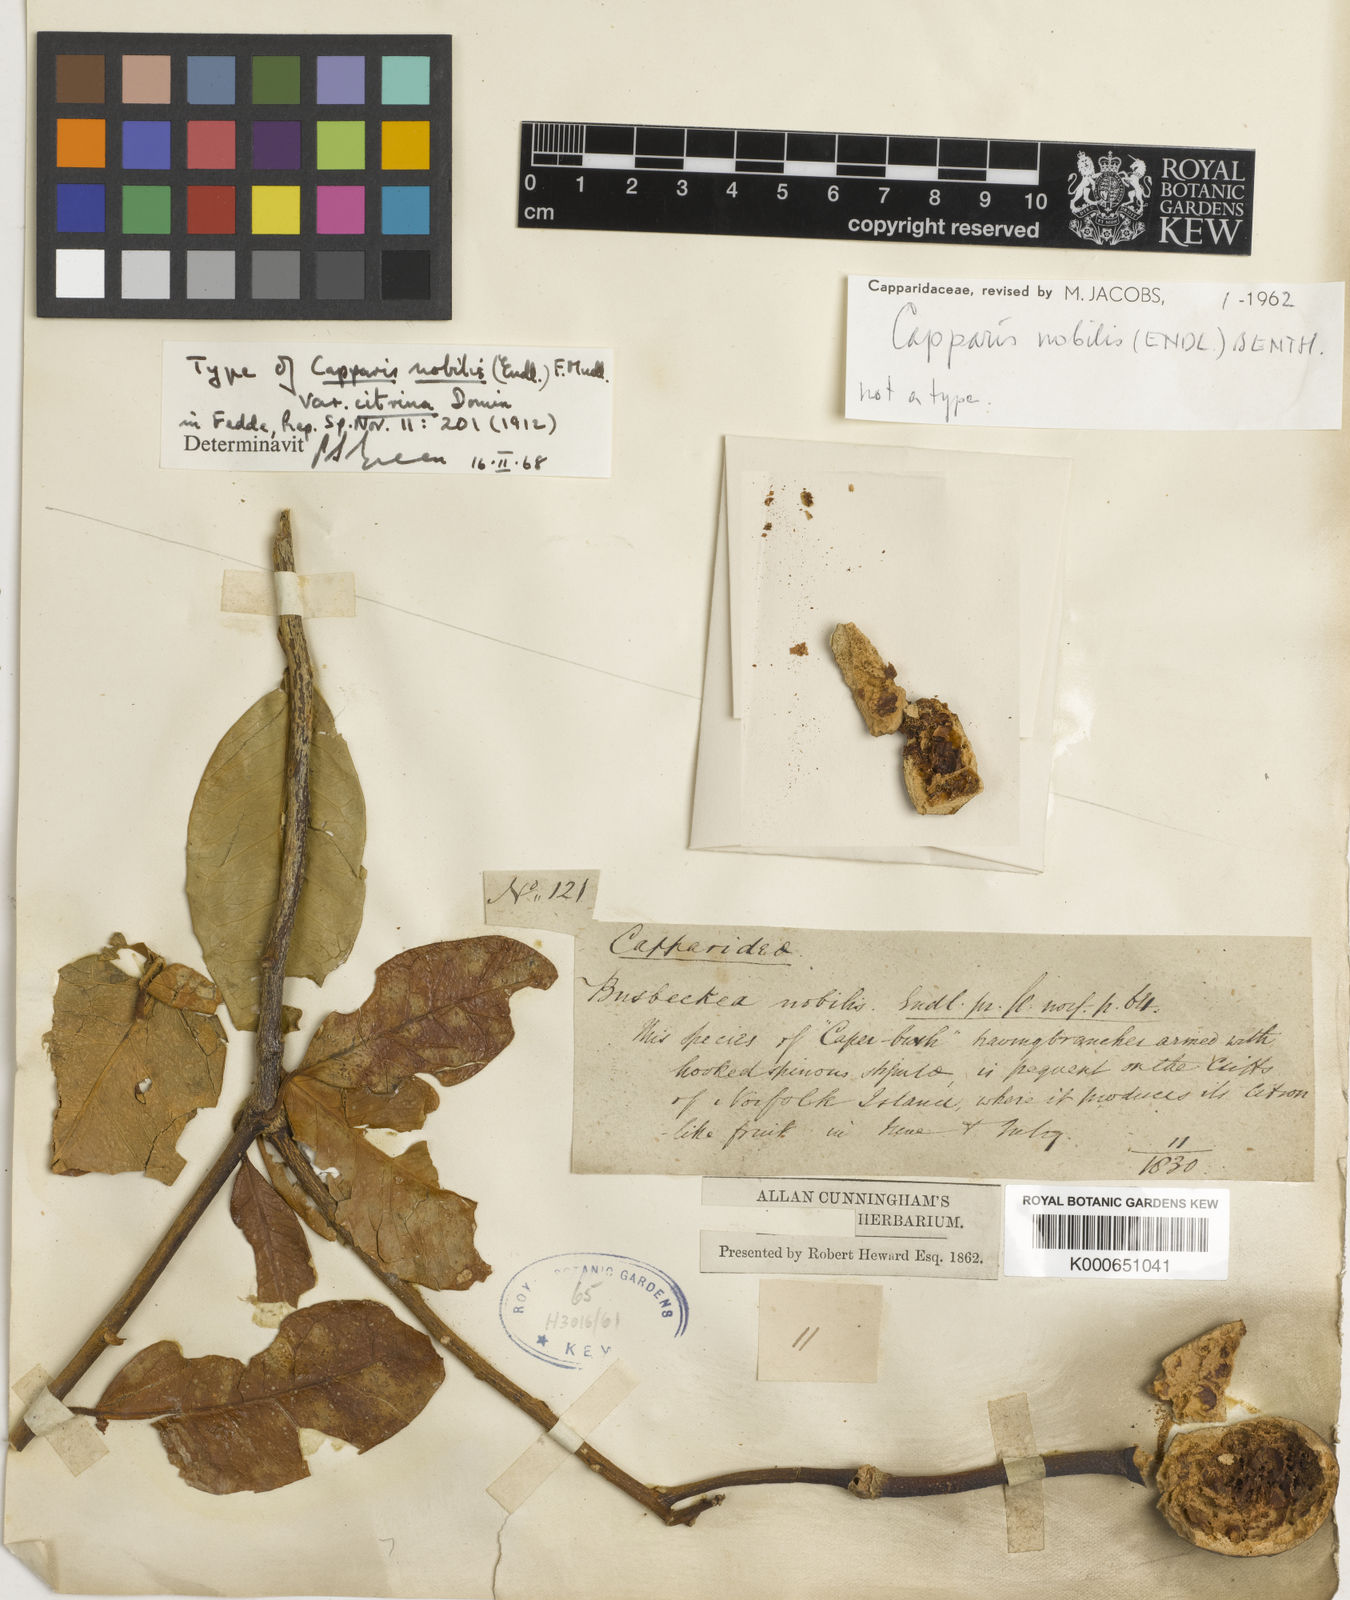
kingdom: Plantae
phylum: Tracheophyta
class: Magnoliopsida
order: Brassicales
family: Capparaceae
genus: Capparis
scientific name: Capparis nobilis
